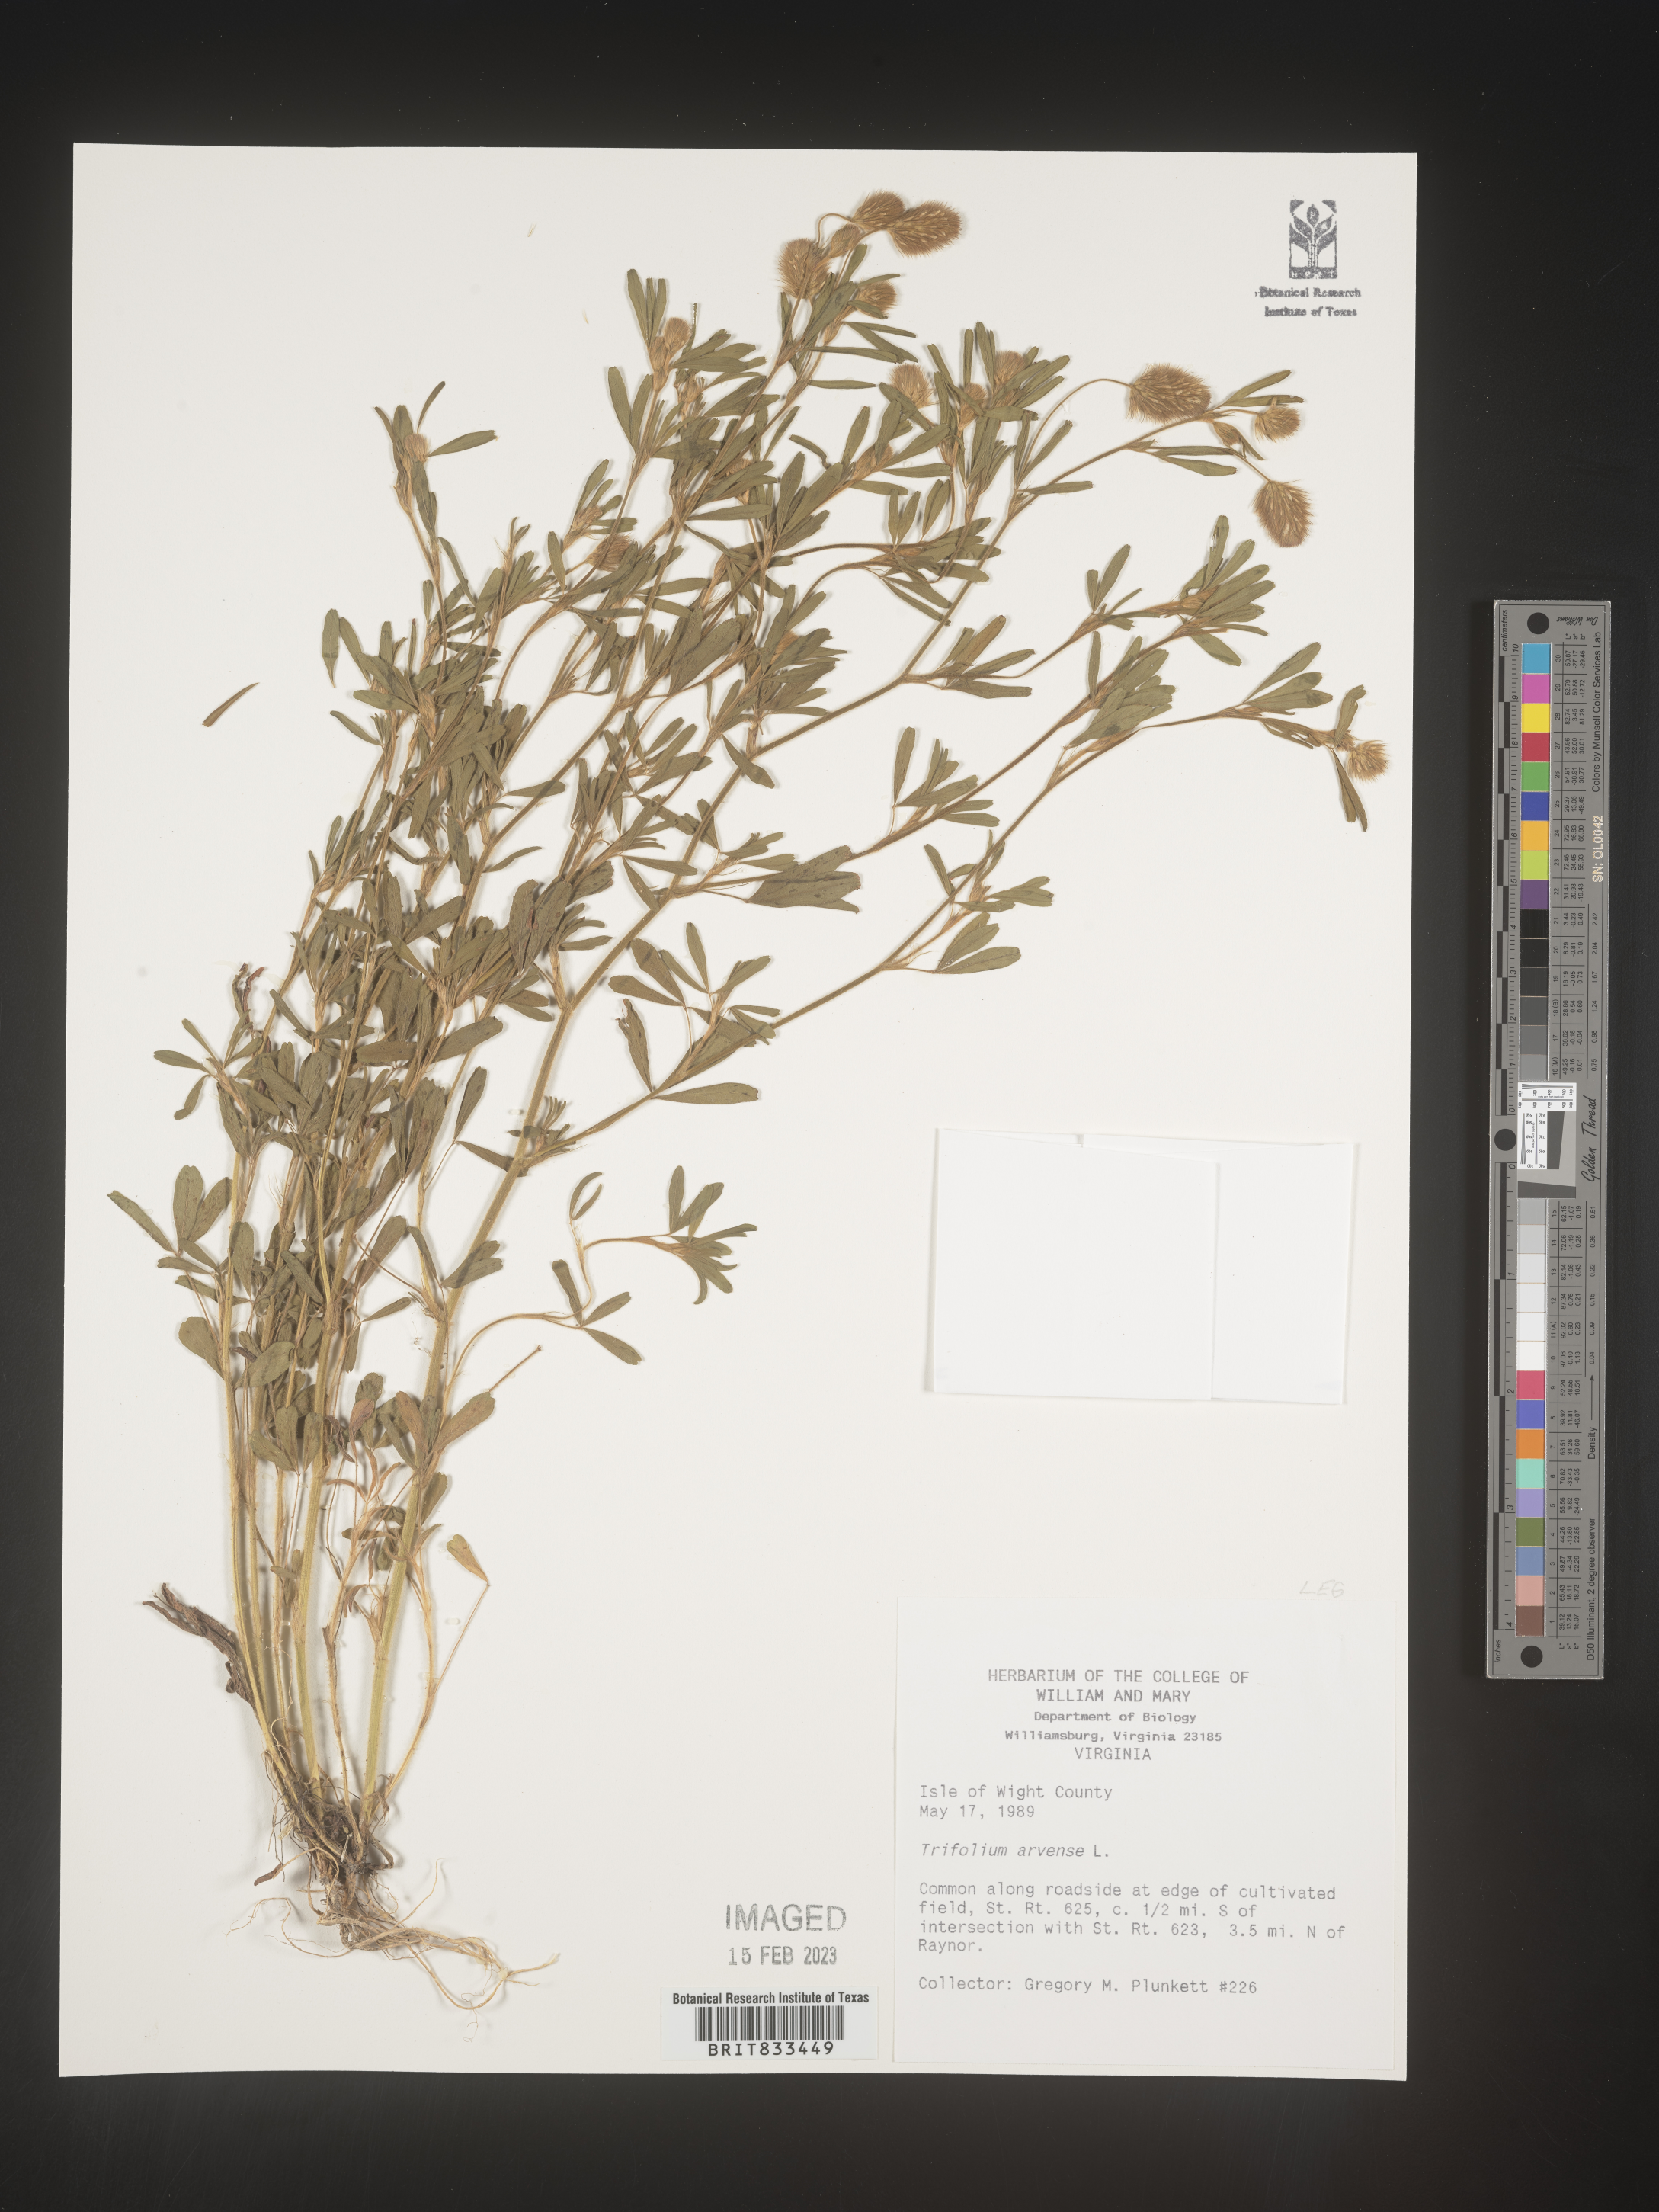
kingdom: Plantae
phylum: Tracheophyta
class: Magnoliopsida
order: Fabales
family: Fabaceae
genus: Trifolium
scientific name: Trifolium arvense
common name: Hare's-foot clover
